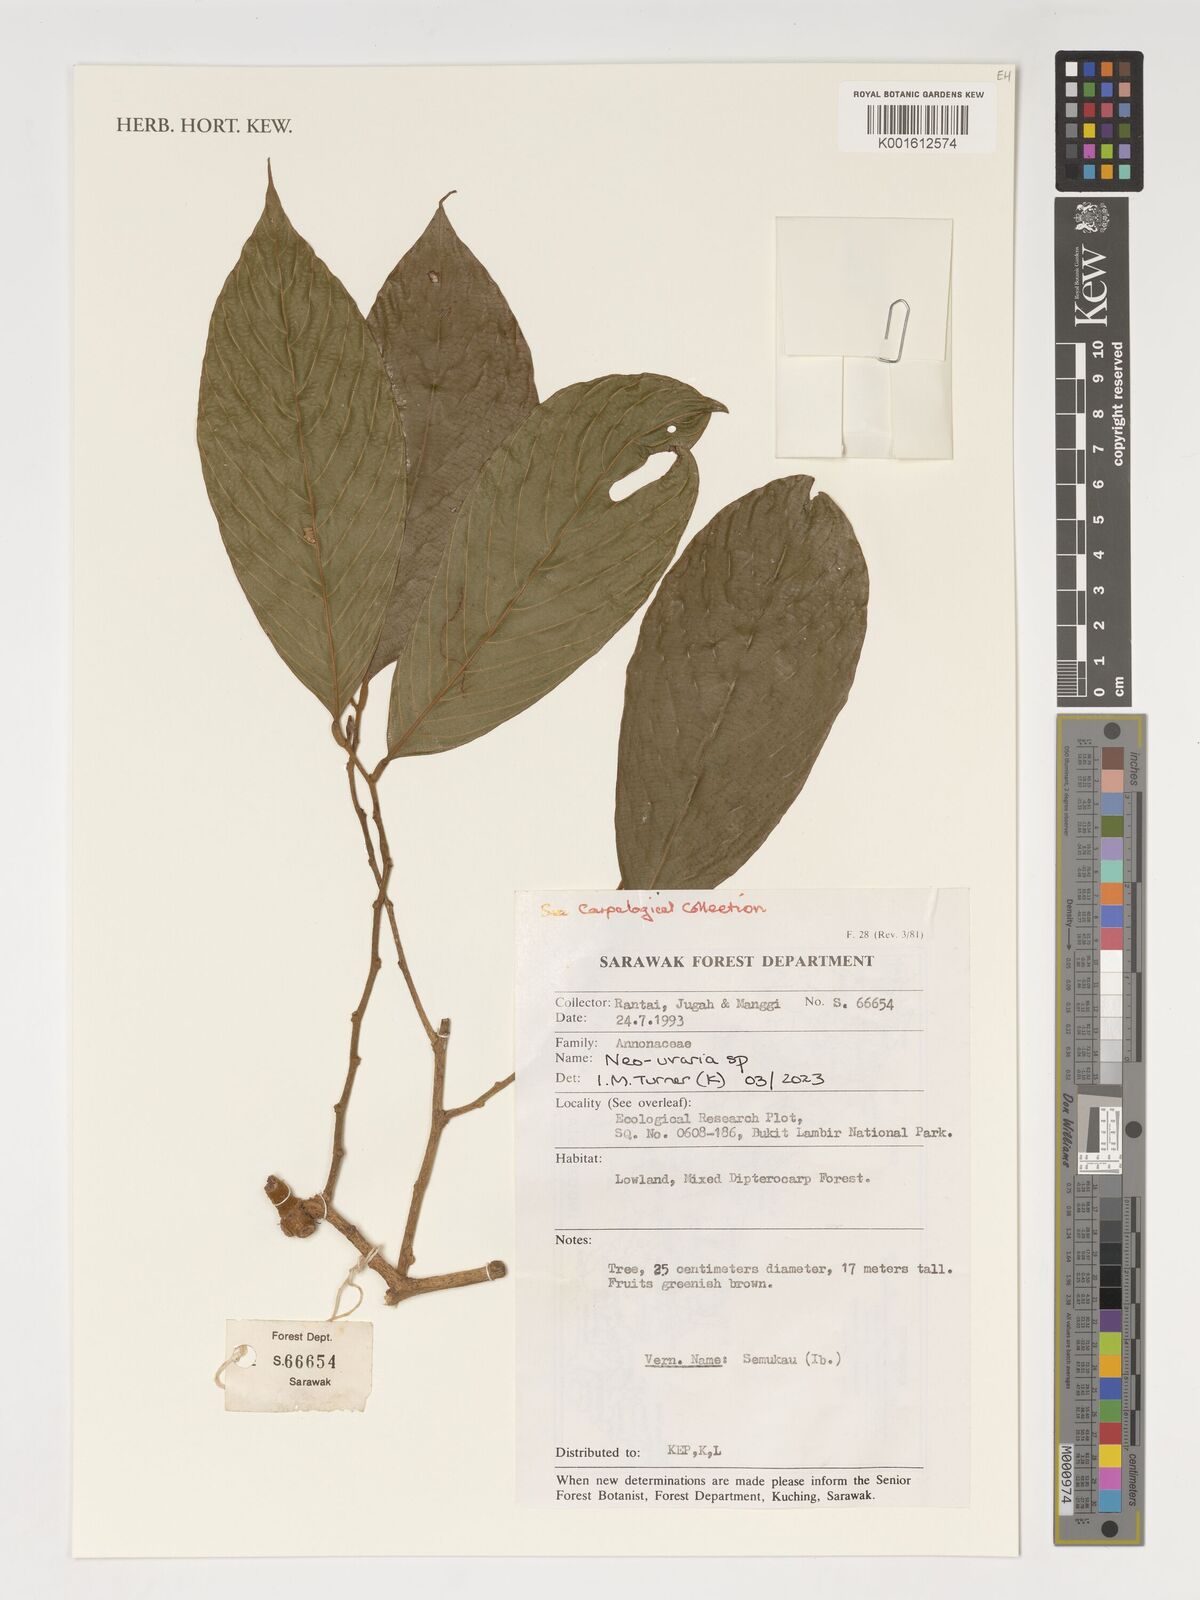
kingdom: Plantae
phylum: Tracheophyta
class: Magnoliopsida
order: Magnoliales
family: Annonaceae
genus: Neo-uvaria
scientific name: Neo-uvaria
